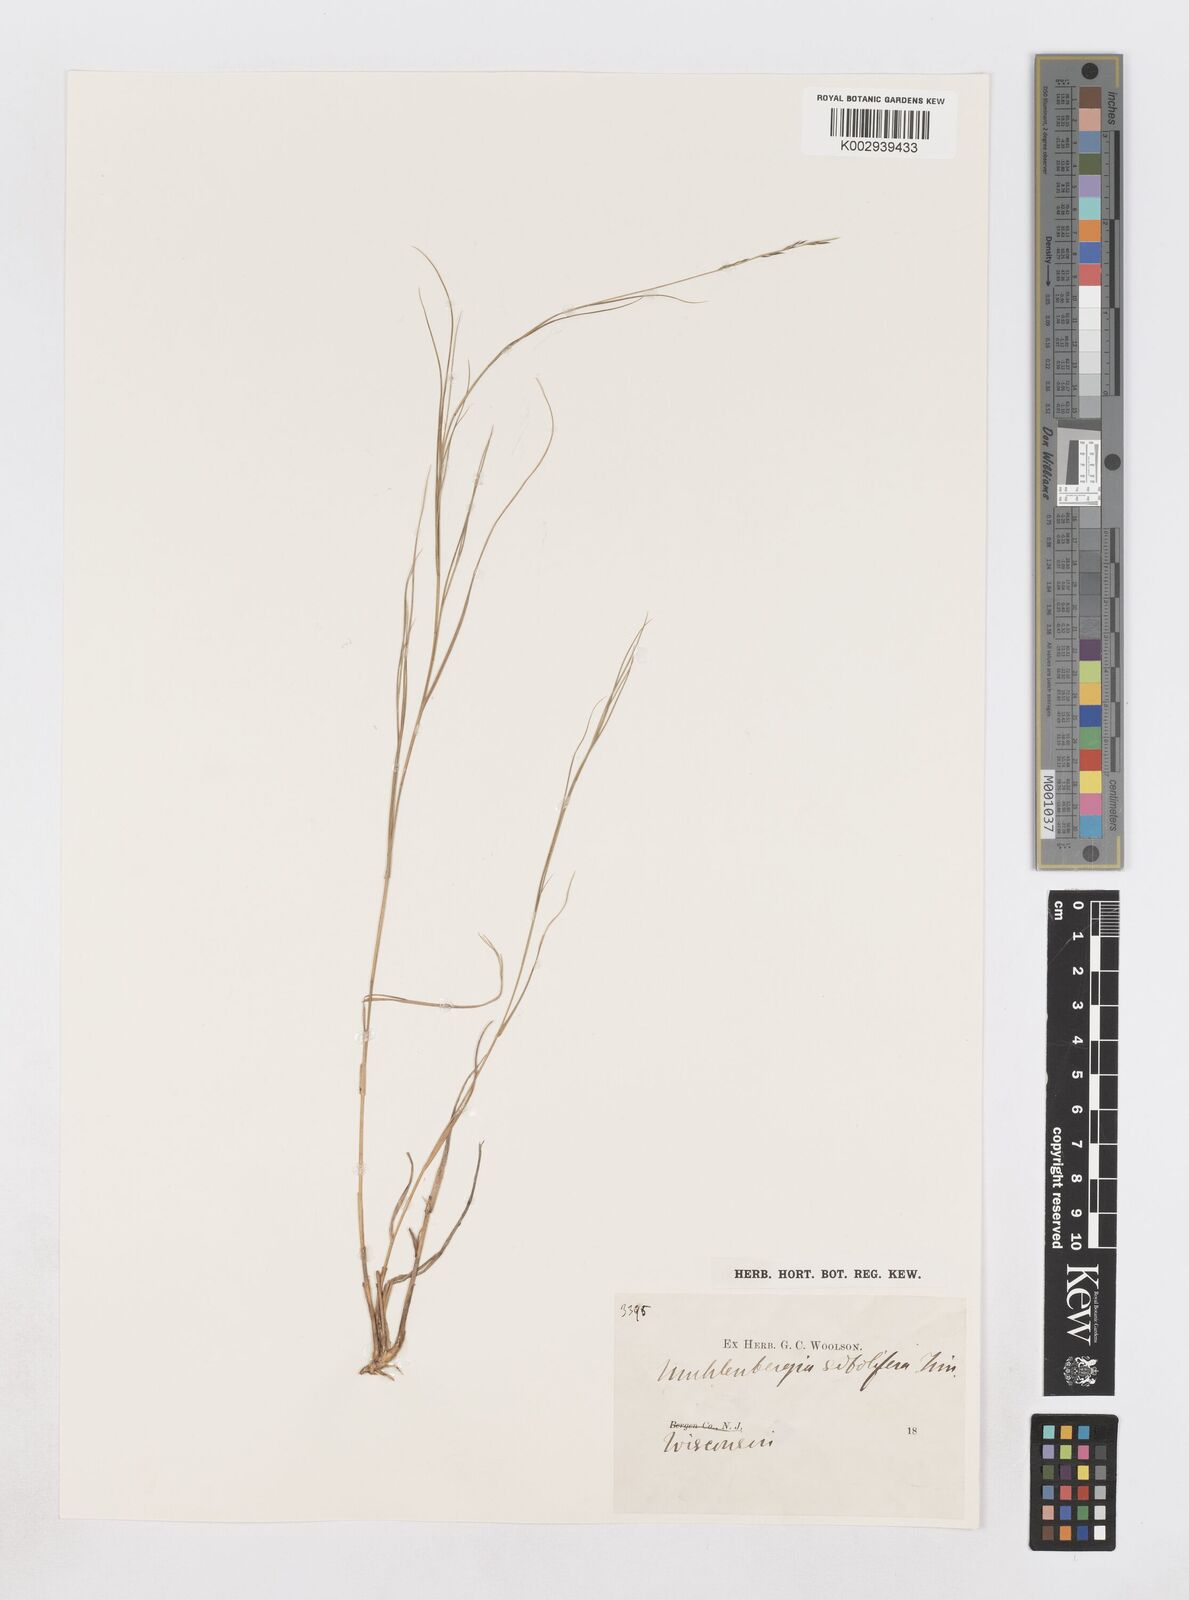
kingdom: Plantae
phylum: Tracheophyta
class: Liliopsida
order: Poales
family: Poaceae
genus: Muhlenbergia
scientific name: Muhlenbergia sobolifera
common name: Creeping muhly
